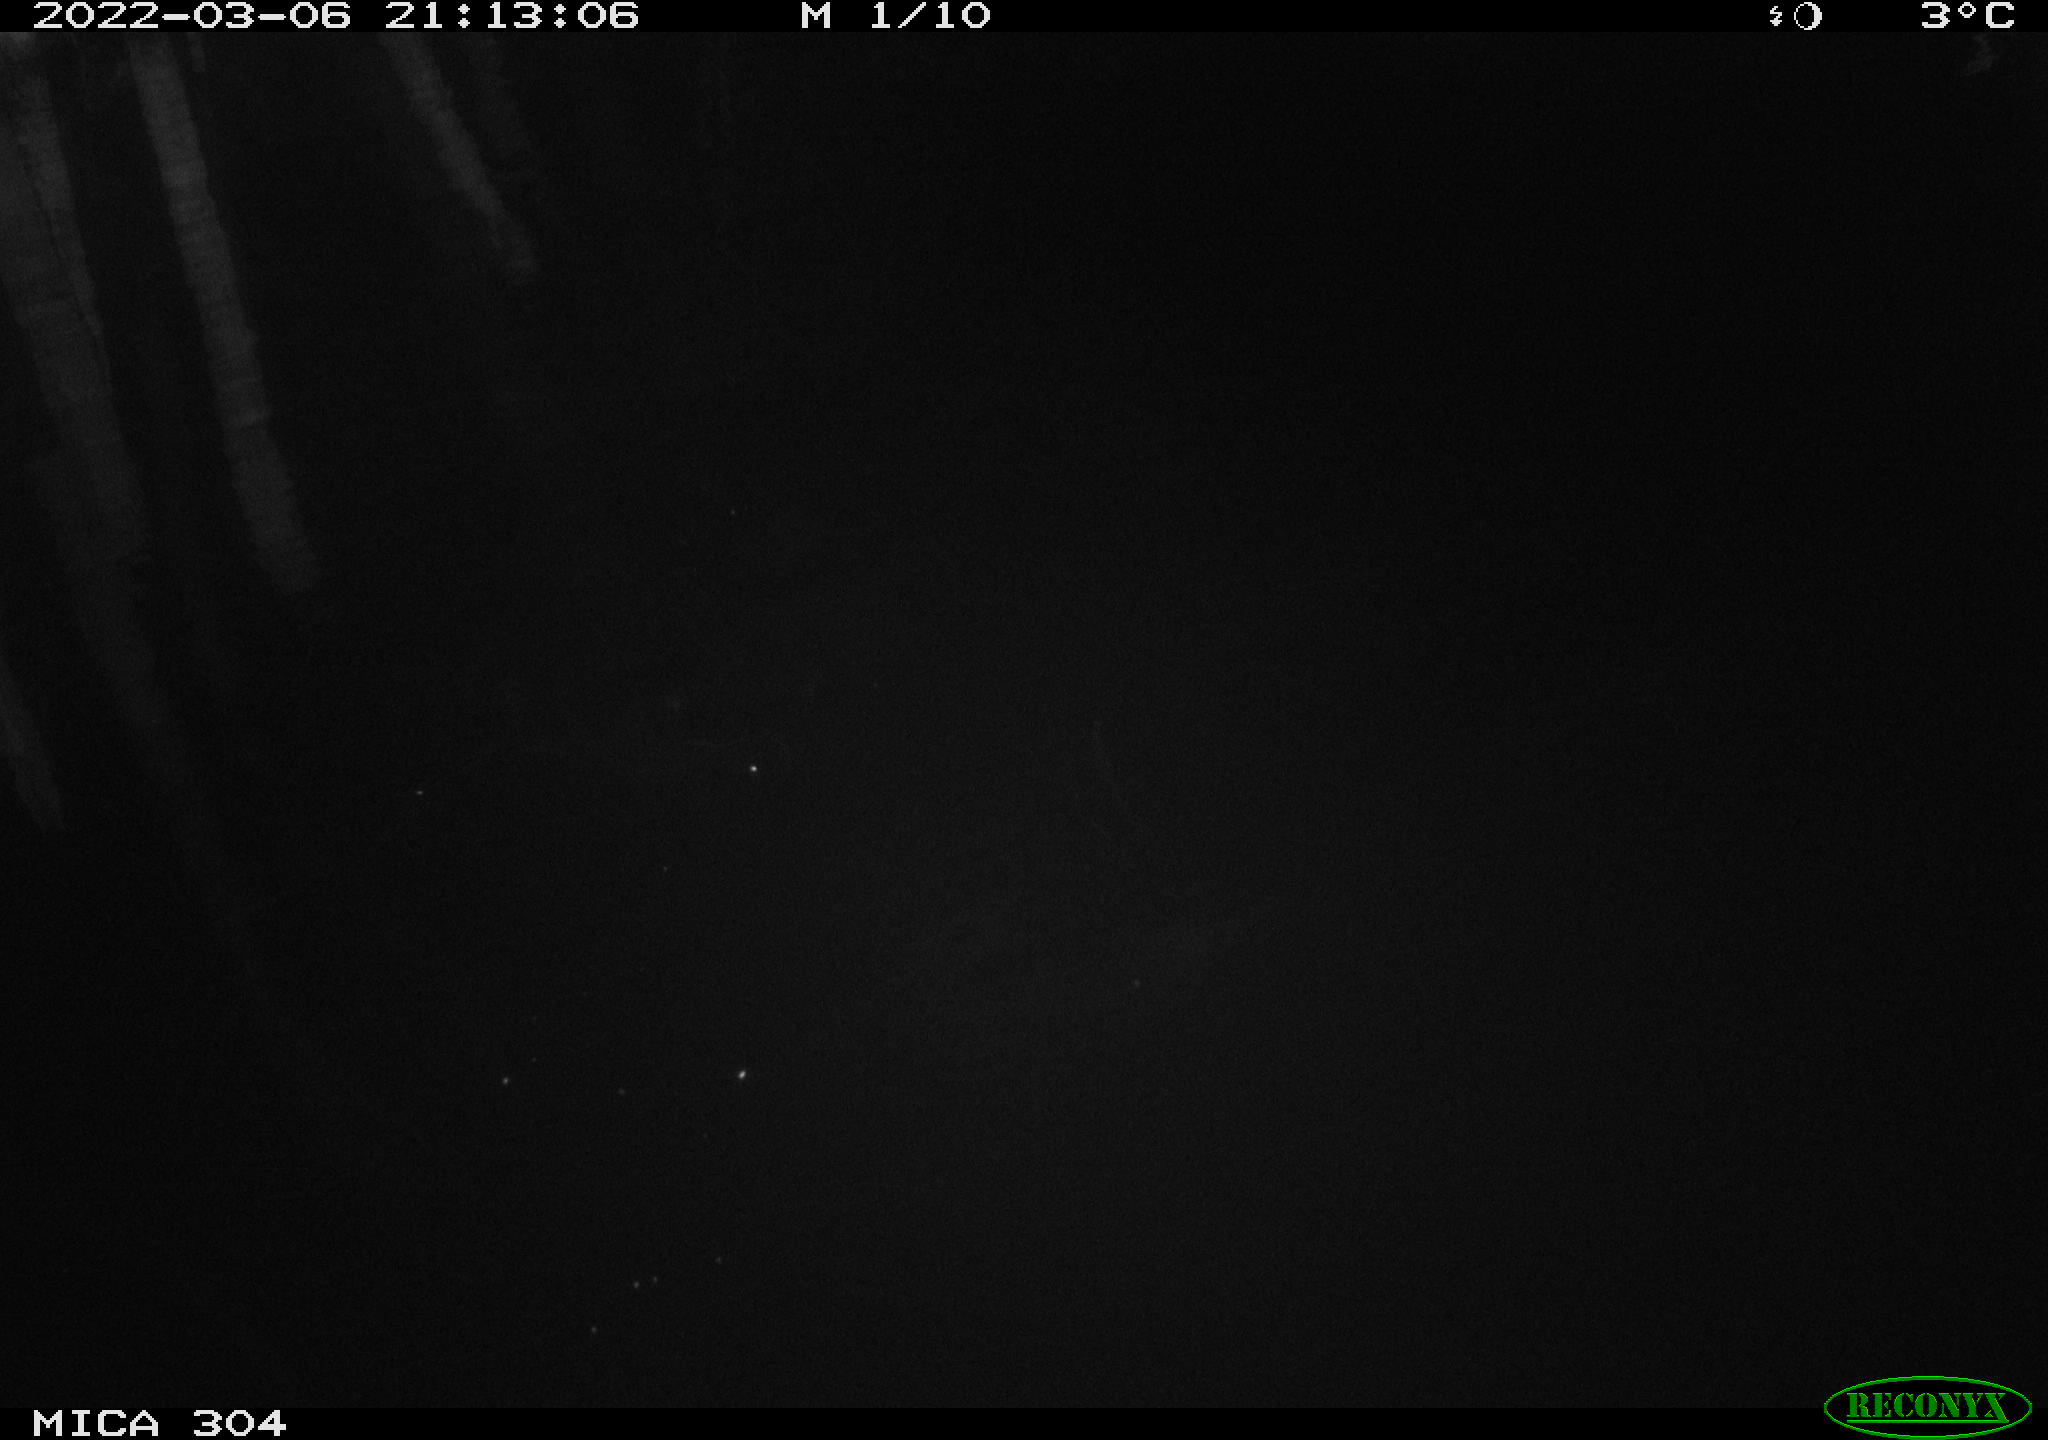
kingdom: Animalia
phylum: Chordata
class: Mammalia
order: Rodentia
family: Muridae
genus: Rattus
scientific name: Rattus norvegicus
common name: Brown rat
